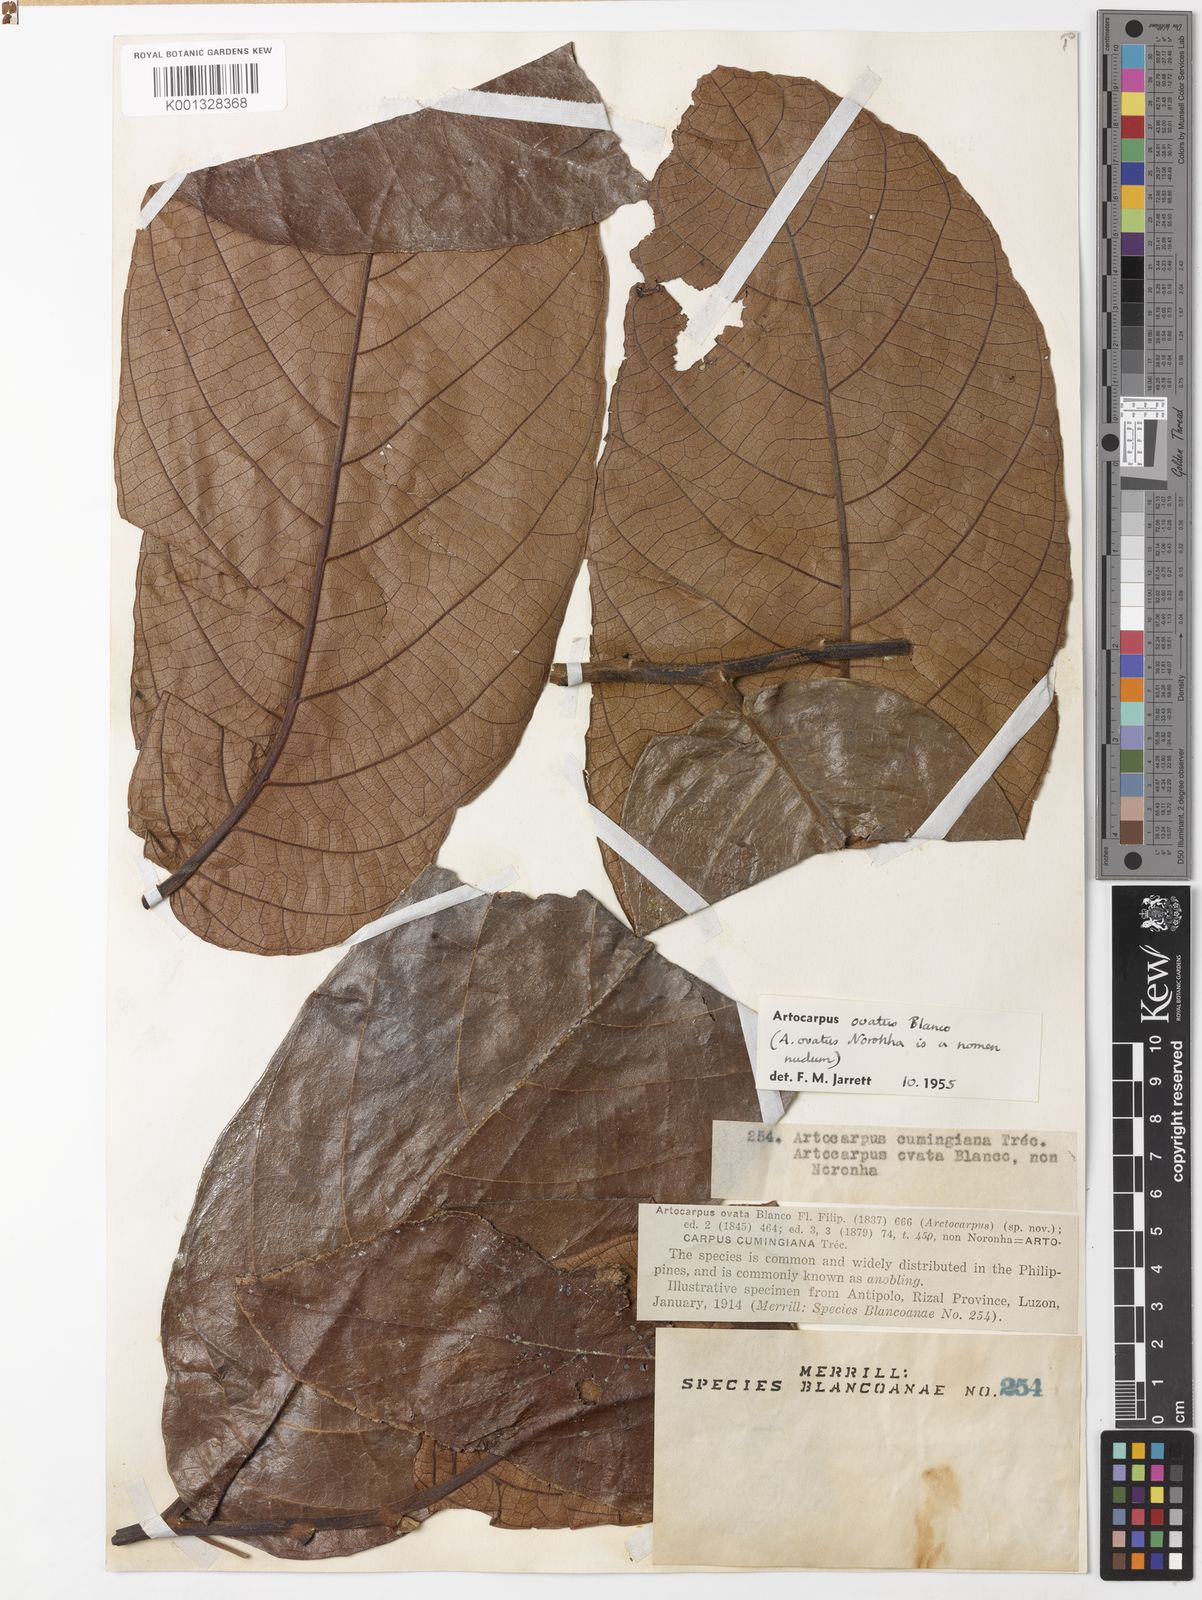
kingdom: Plantae
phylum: Tracheophyta
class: Magnoliopsida
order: Rosales
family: Moraceae
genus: Artocarpus
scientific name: Artocarpus lacucha
